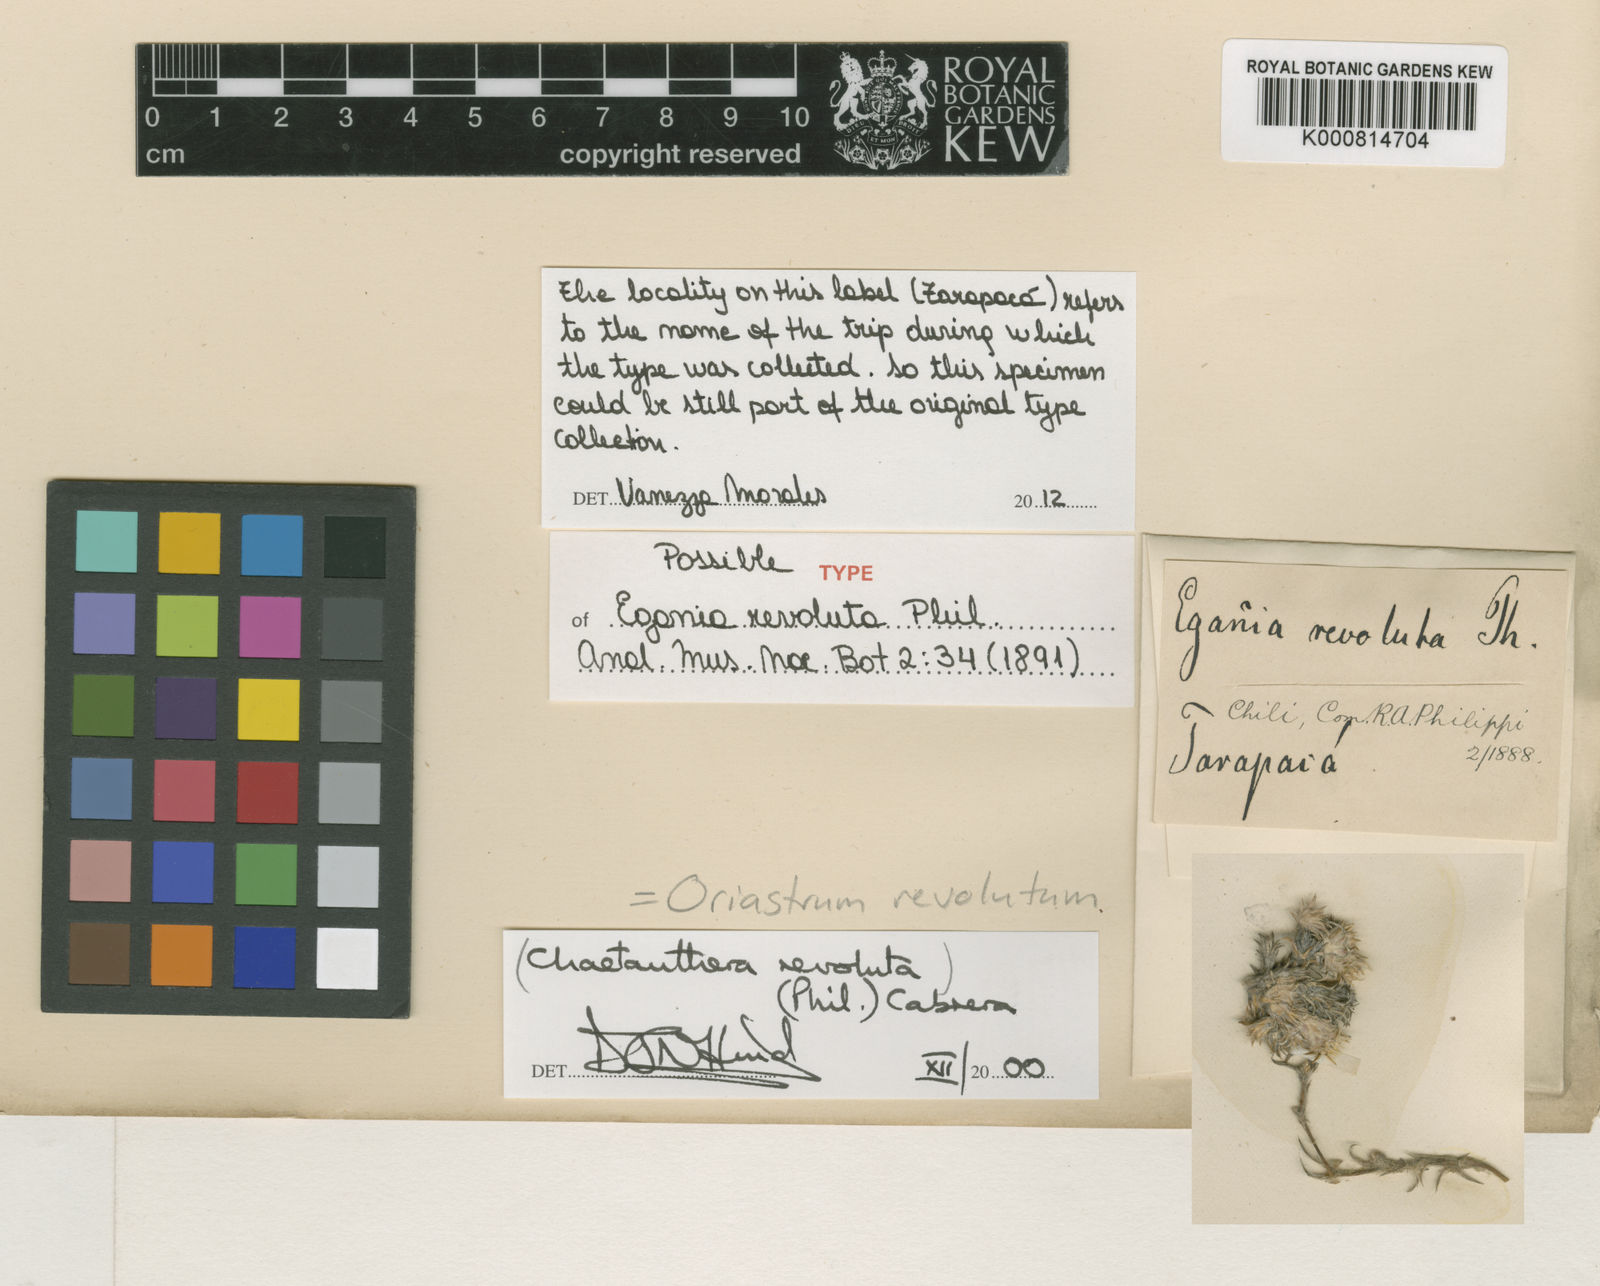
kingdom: Plantae
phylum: Tracheophyta
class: Magnoliopsida
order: Asterales
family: Asteraceae
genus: Oriastrum
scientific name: Oriastrum revolutum
